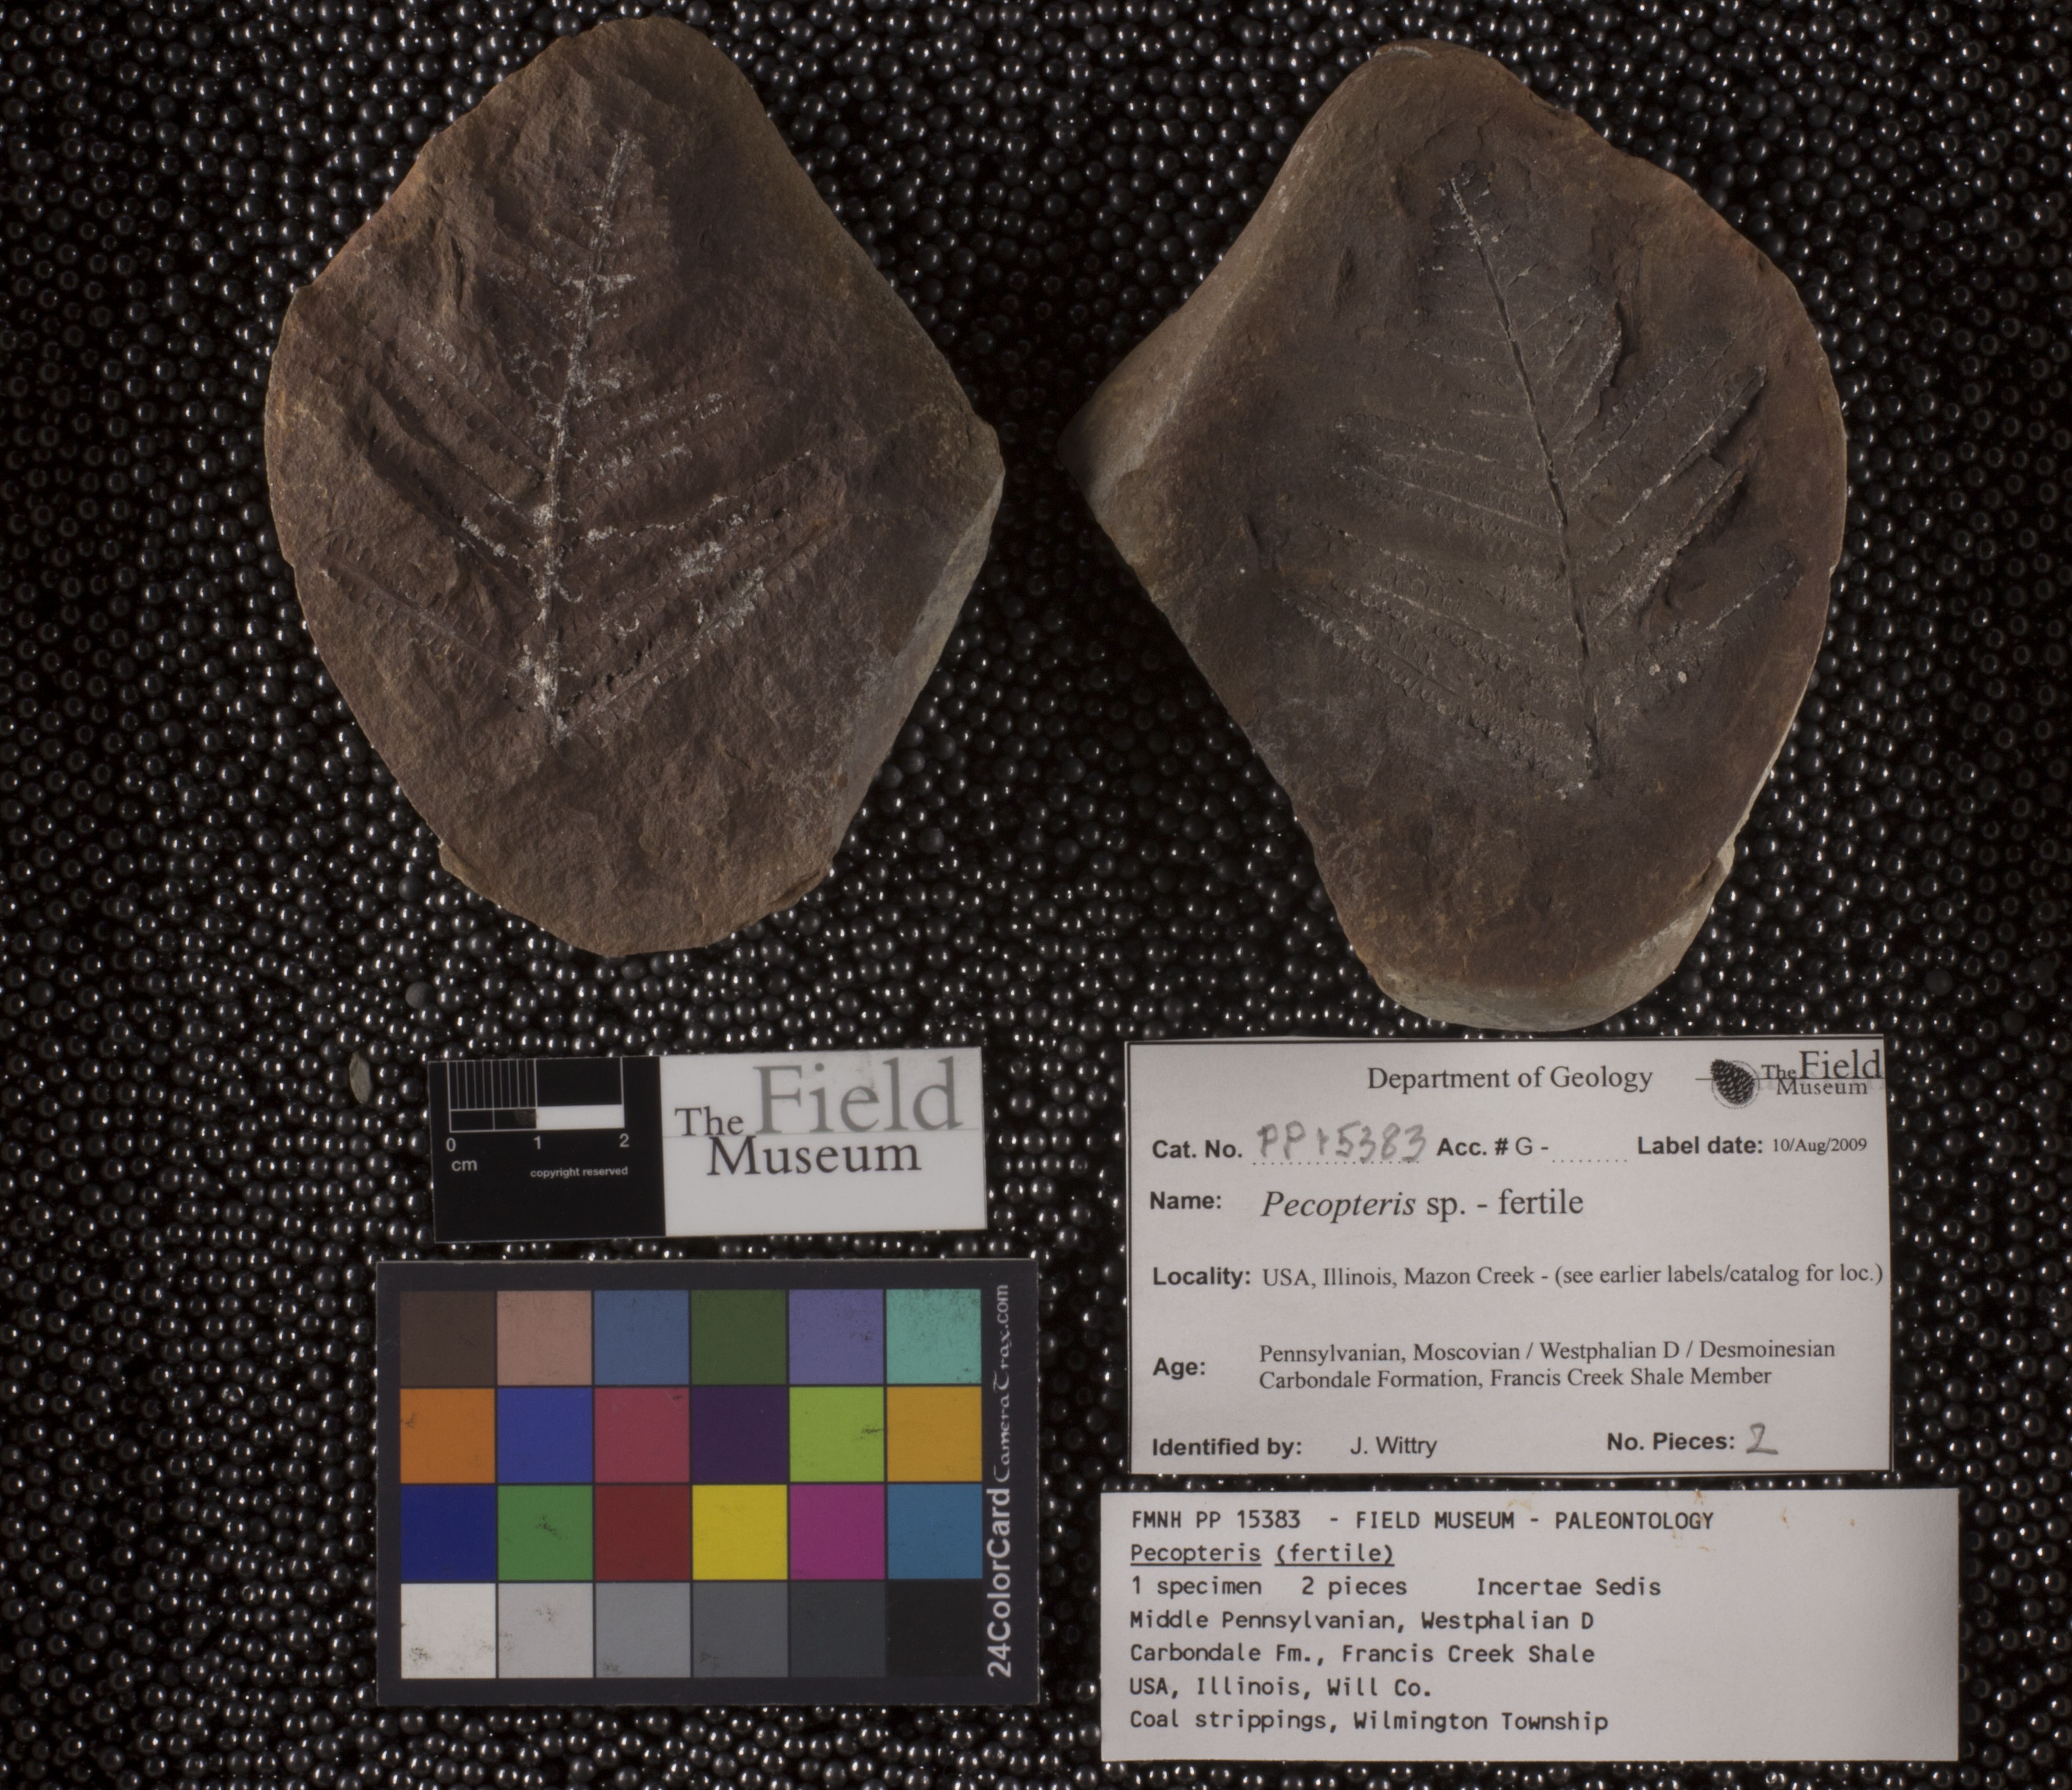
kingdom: Plantae
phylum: Tracheophyta
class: Polypodiopsida
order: Marattiales
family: Asterothecaceae
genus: Pecopteris
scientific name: Pecopteris
